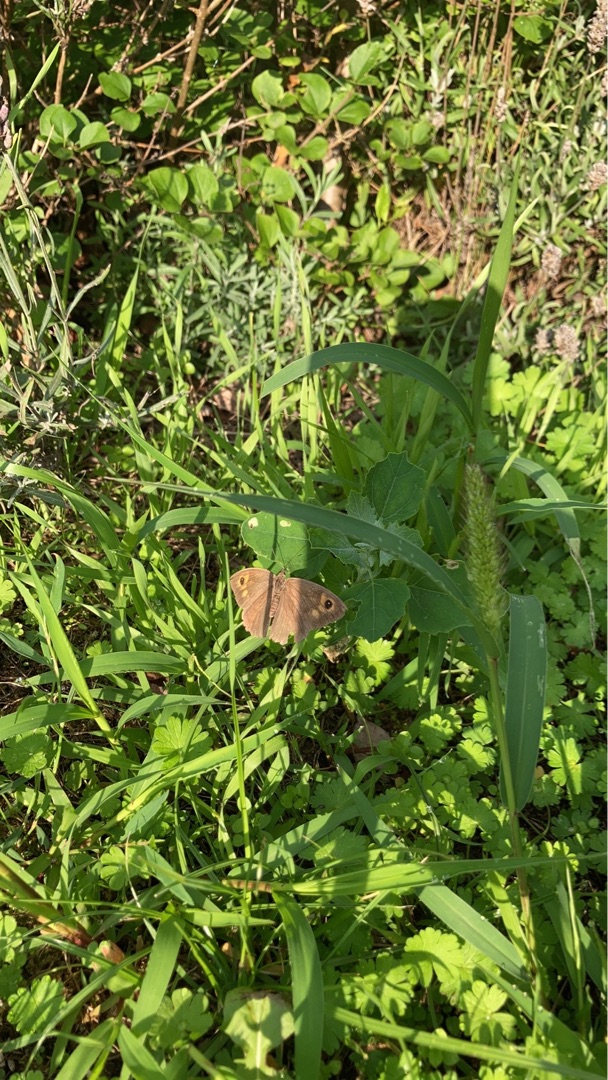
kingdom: Animalia
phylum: Arthropoda
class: Insecta
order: Lepidoptera
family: Nymphalidae
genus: Maniola
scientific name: Maniola jurtina
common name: Græsrandøje
